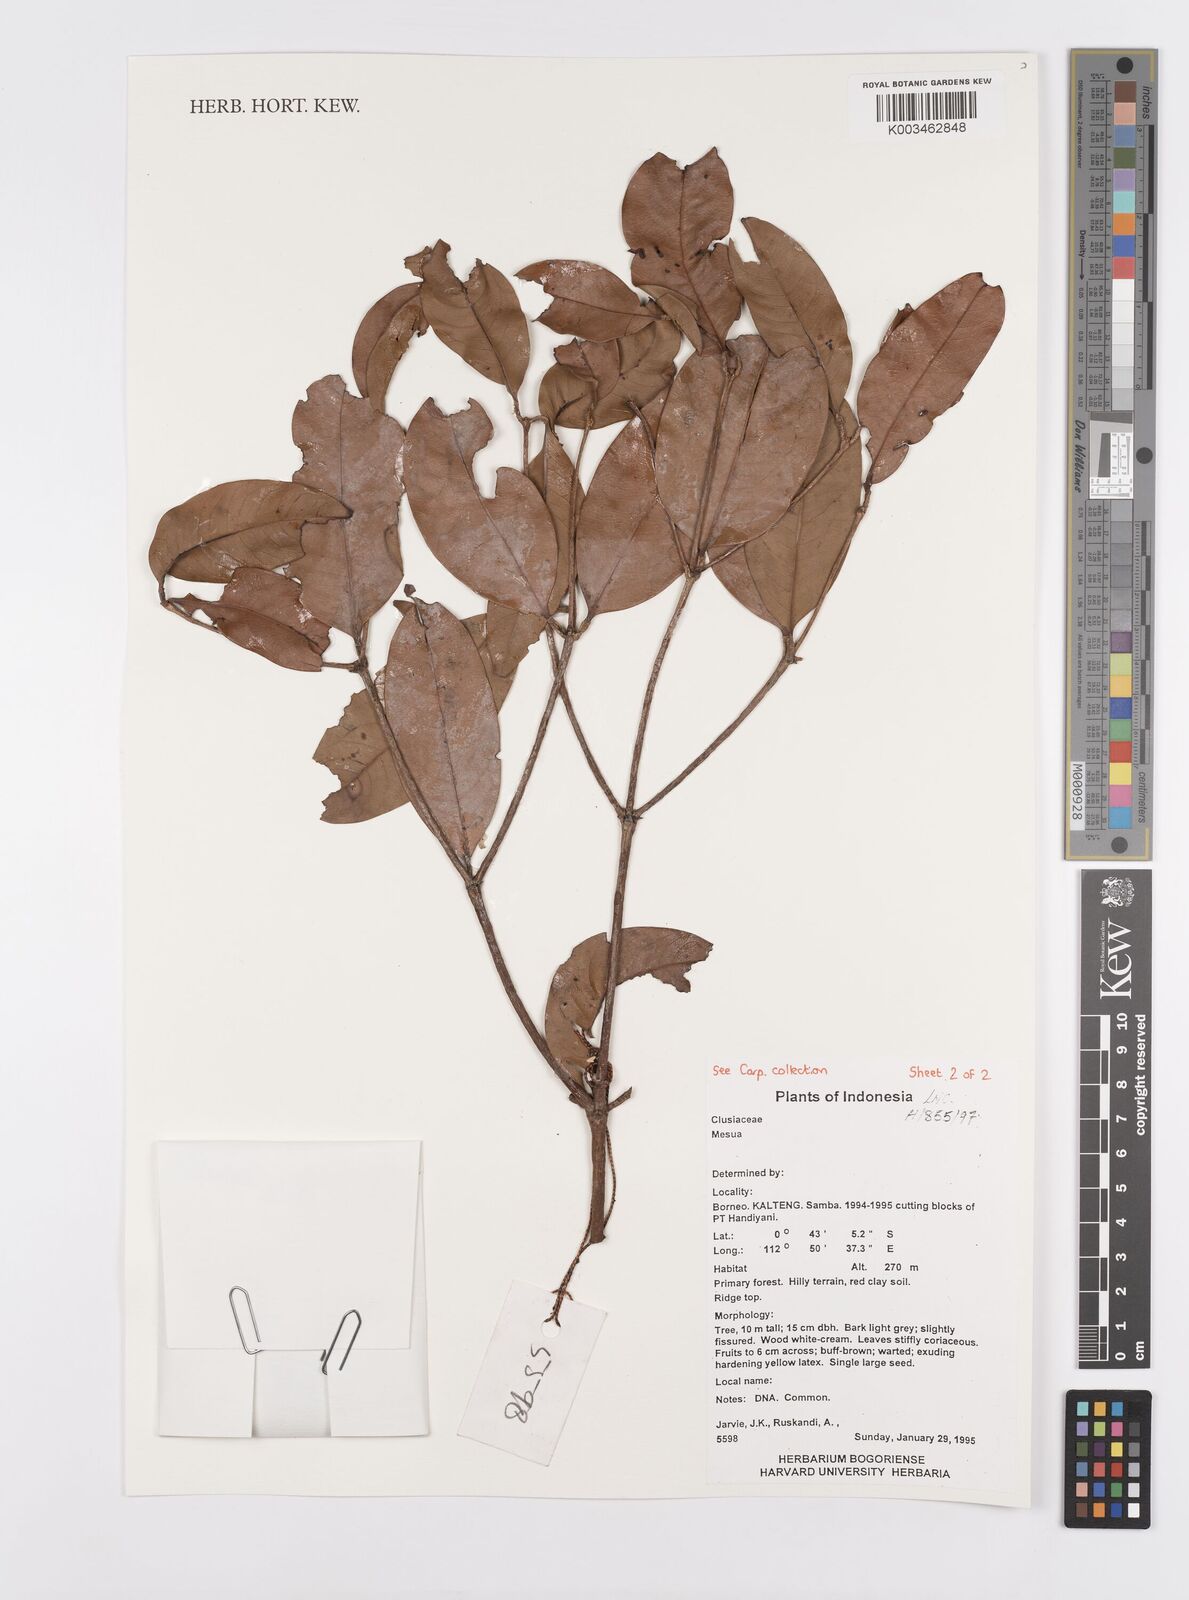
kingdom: Plantae
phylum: Tracheophyta
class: Magnoliopsida
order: Malpighiales
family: Calophyllaceae
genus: Mesua
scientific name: Mesua
